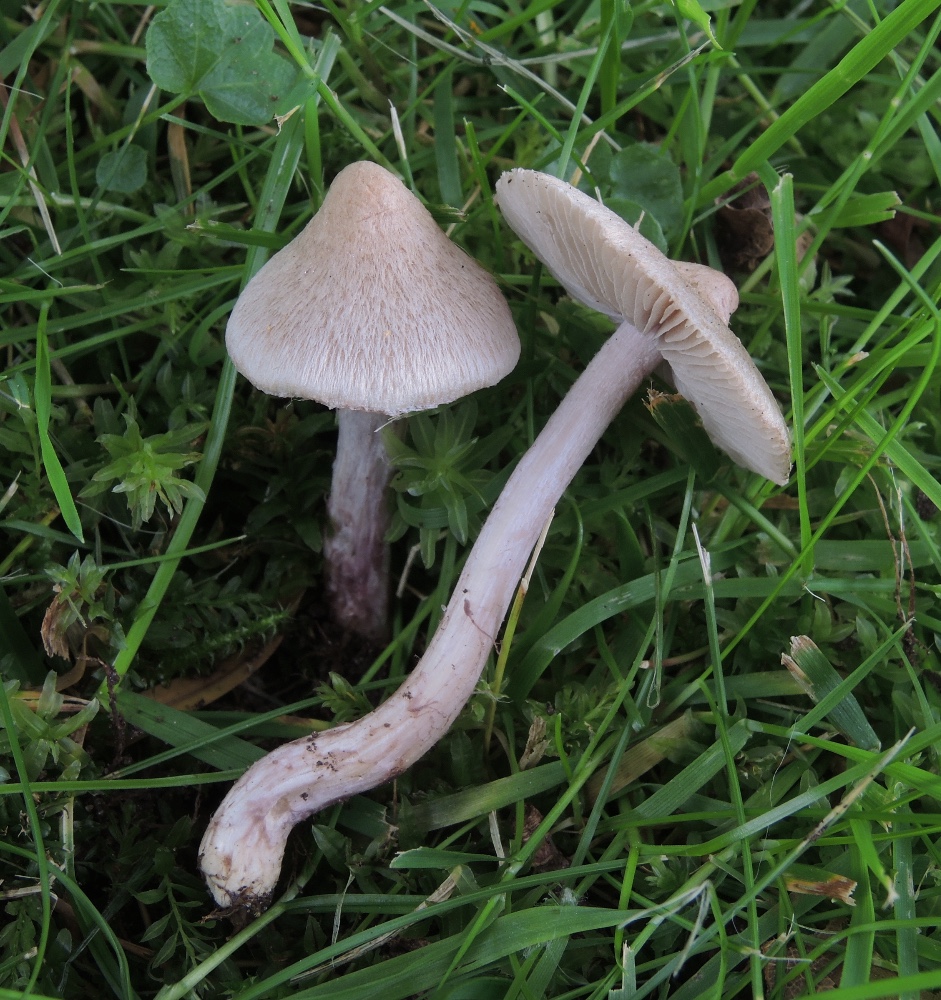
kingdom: Fungi
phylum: Basidiomycota
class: Agaricomycetes
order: Agaricales
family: Inocybaceae
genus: Inocybe
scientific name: Inocybe sindonia
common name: bleg trævlhat
